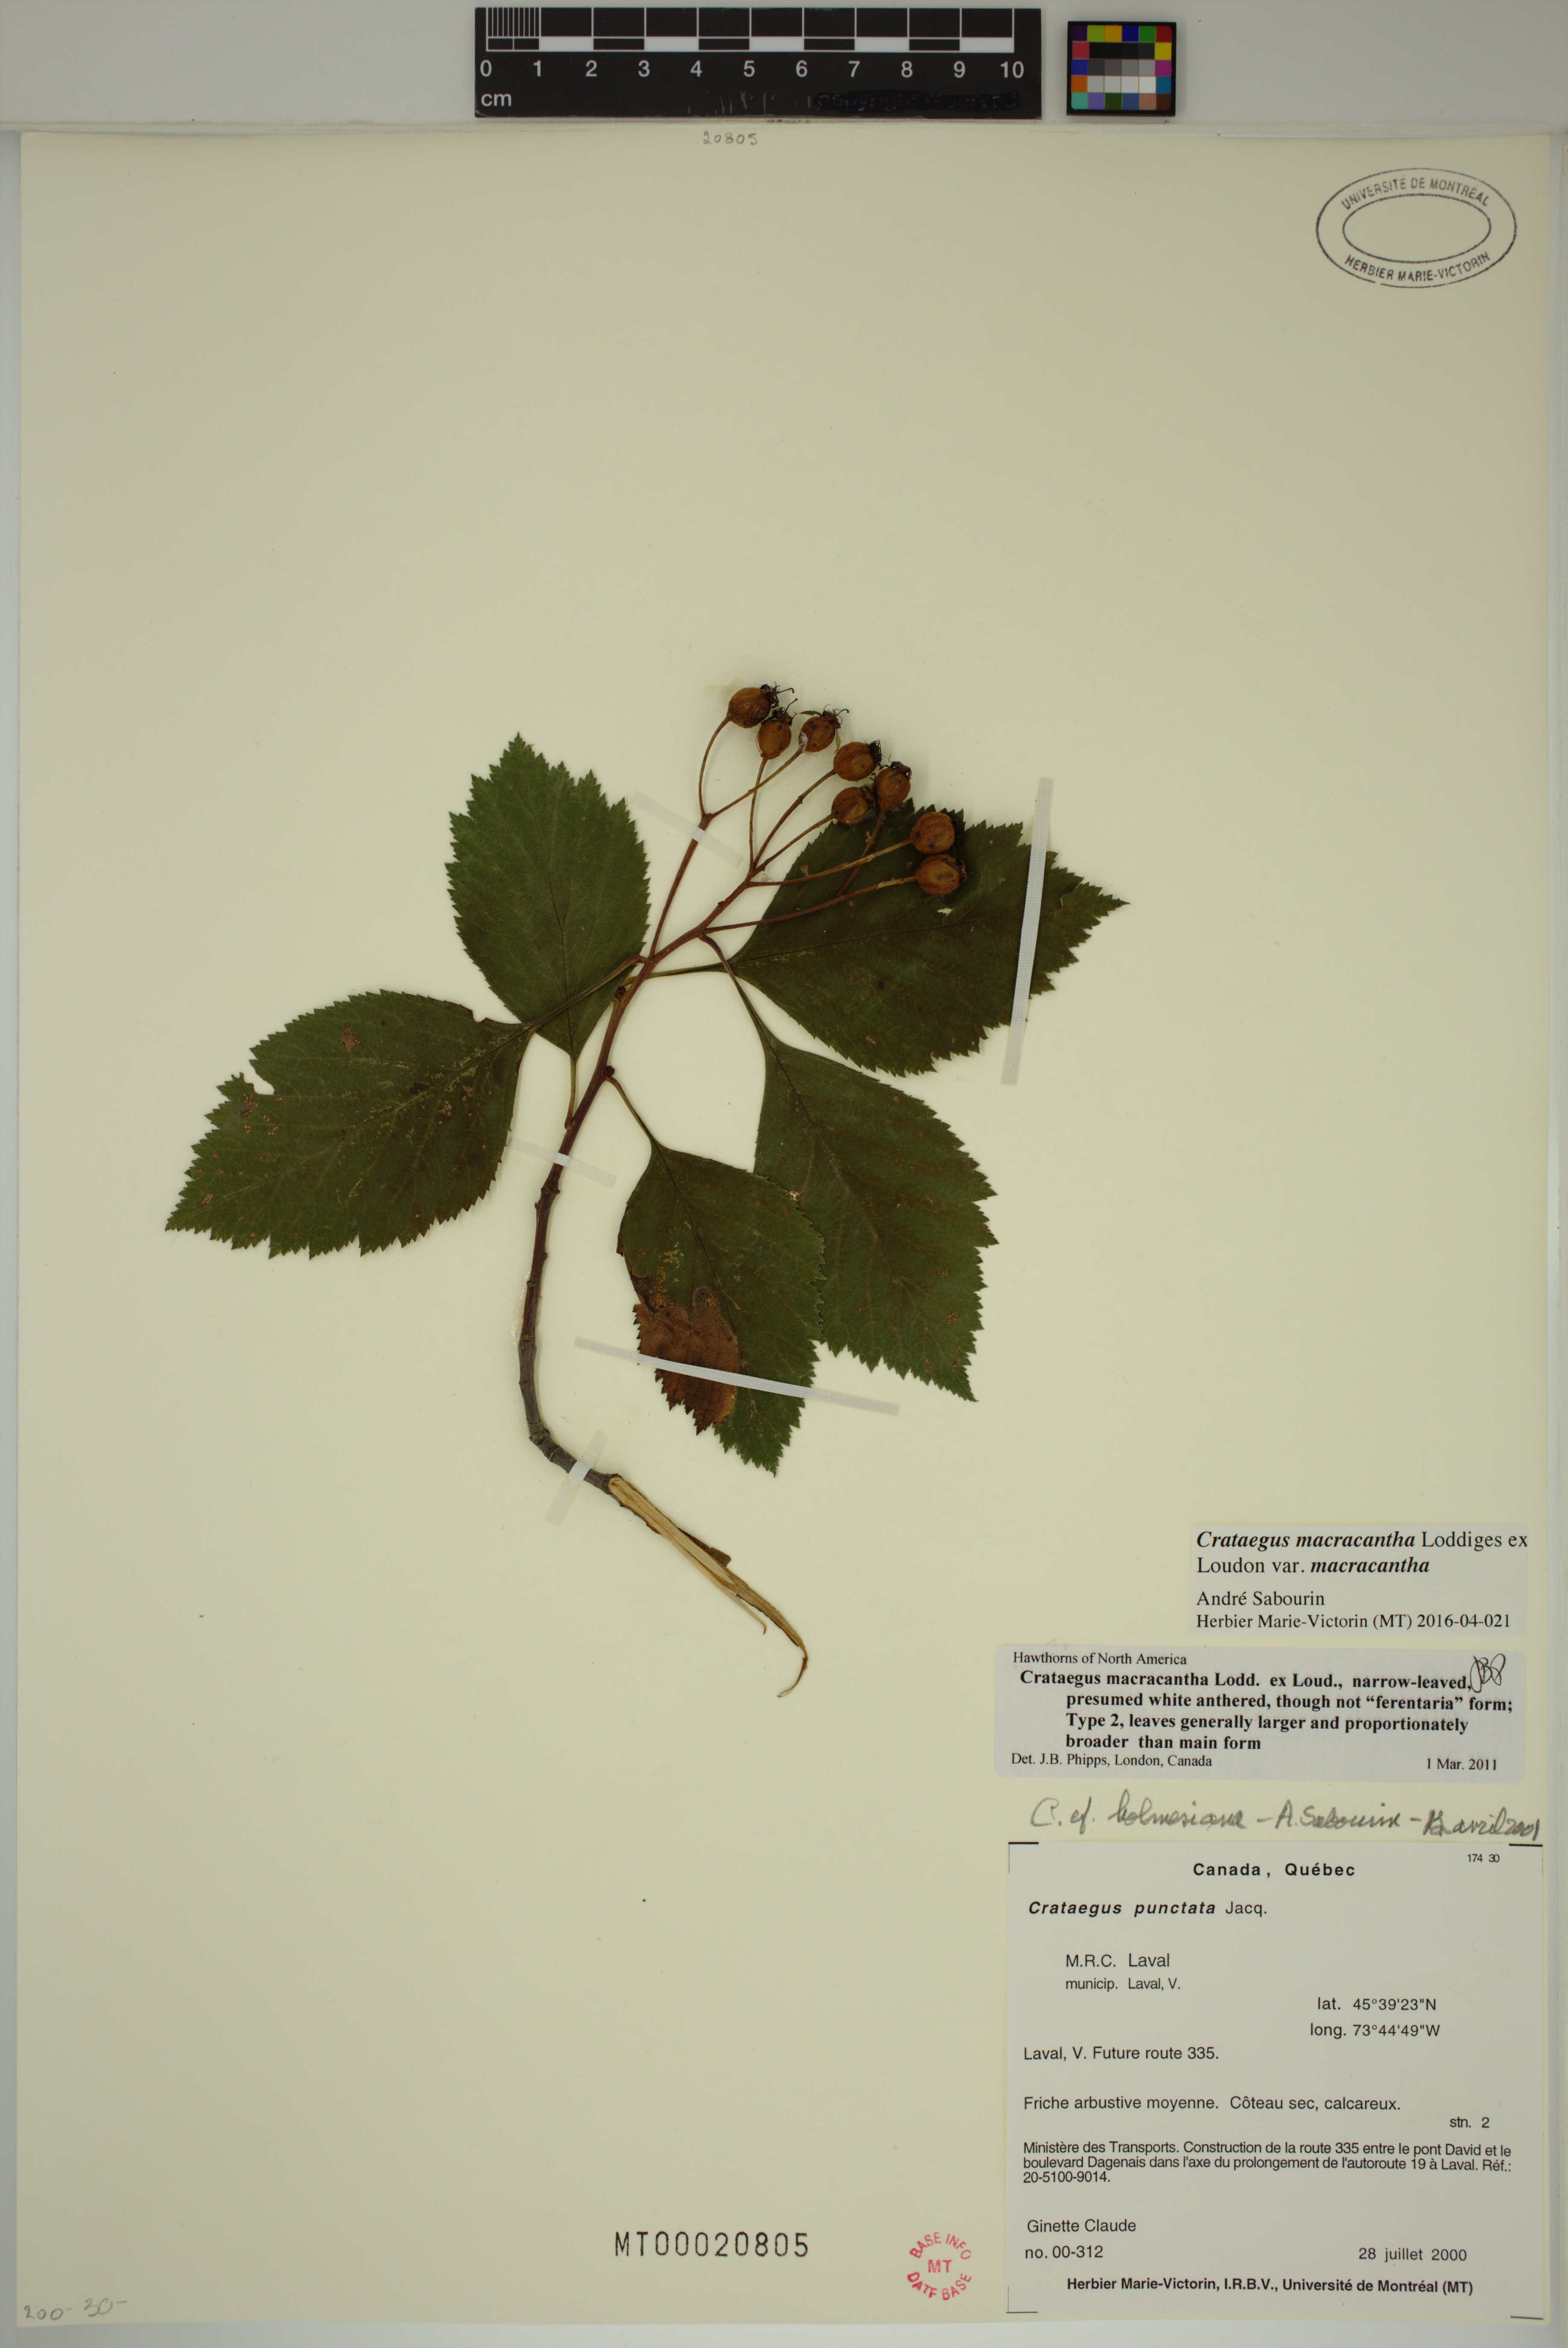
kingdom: Plantae
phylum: Tracheophyta
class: Magnoliopsida
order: Rosales
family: Rosaceae
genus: Crataegus
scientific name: Crataegus macracantha
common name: Large-thorn hawthorn
